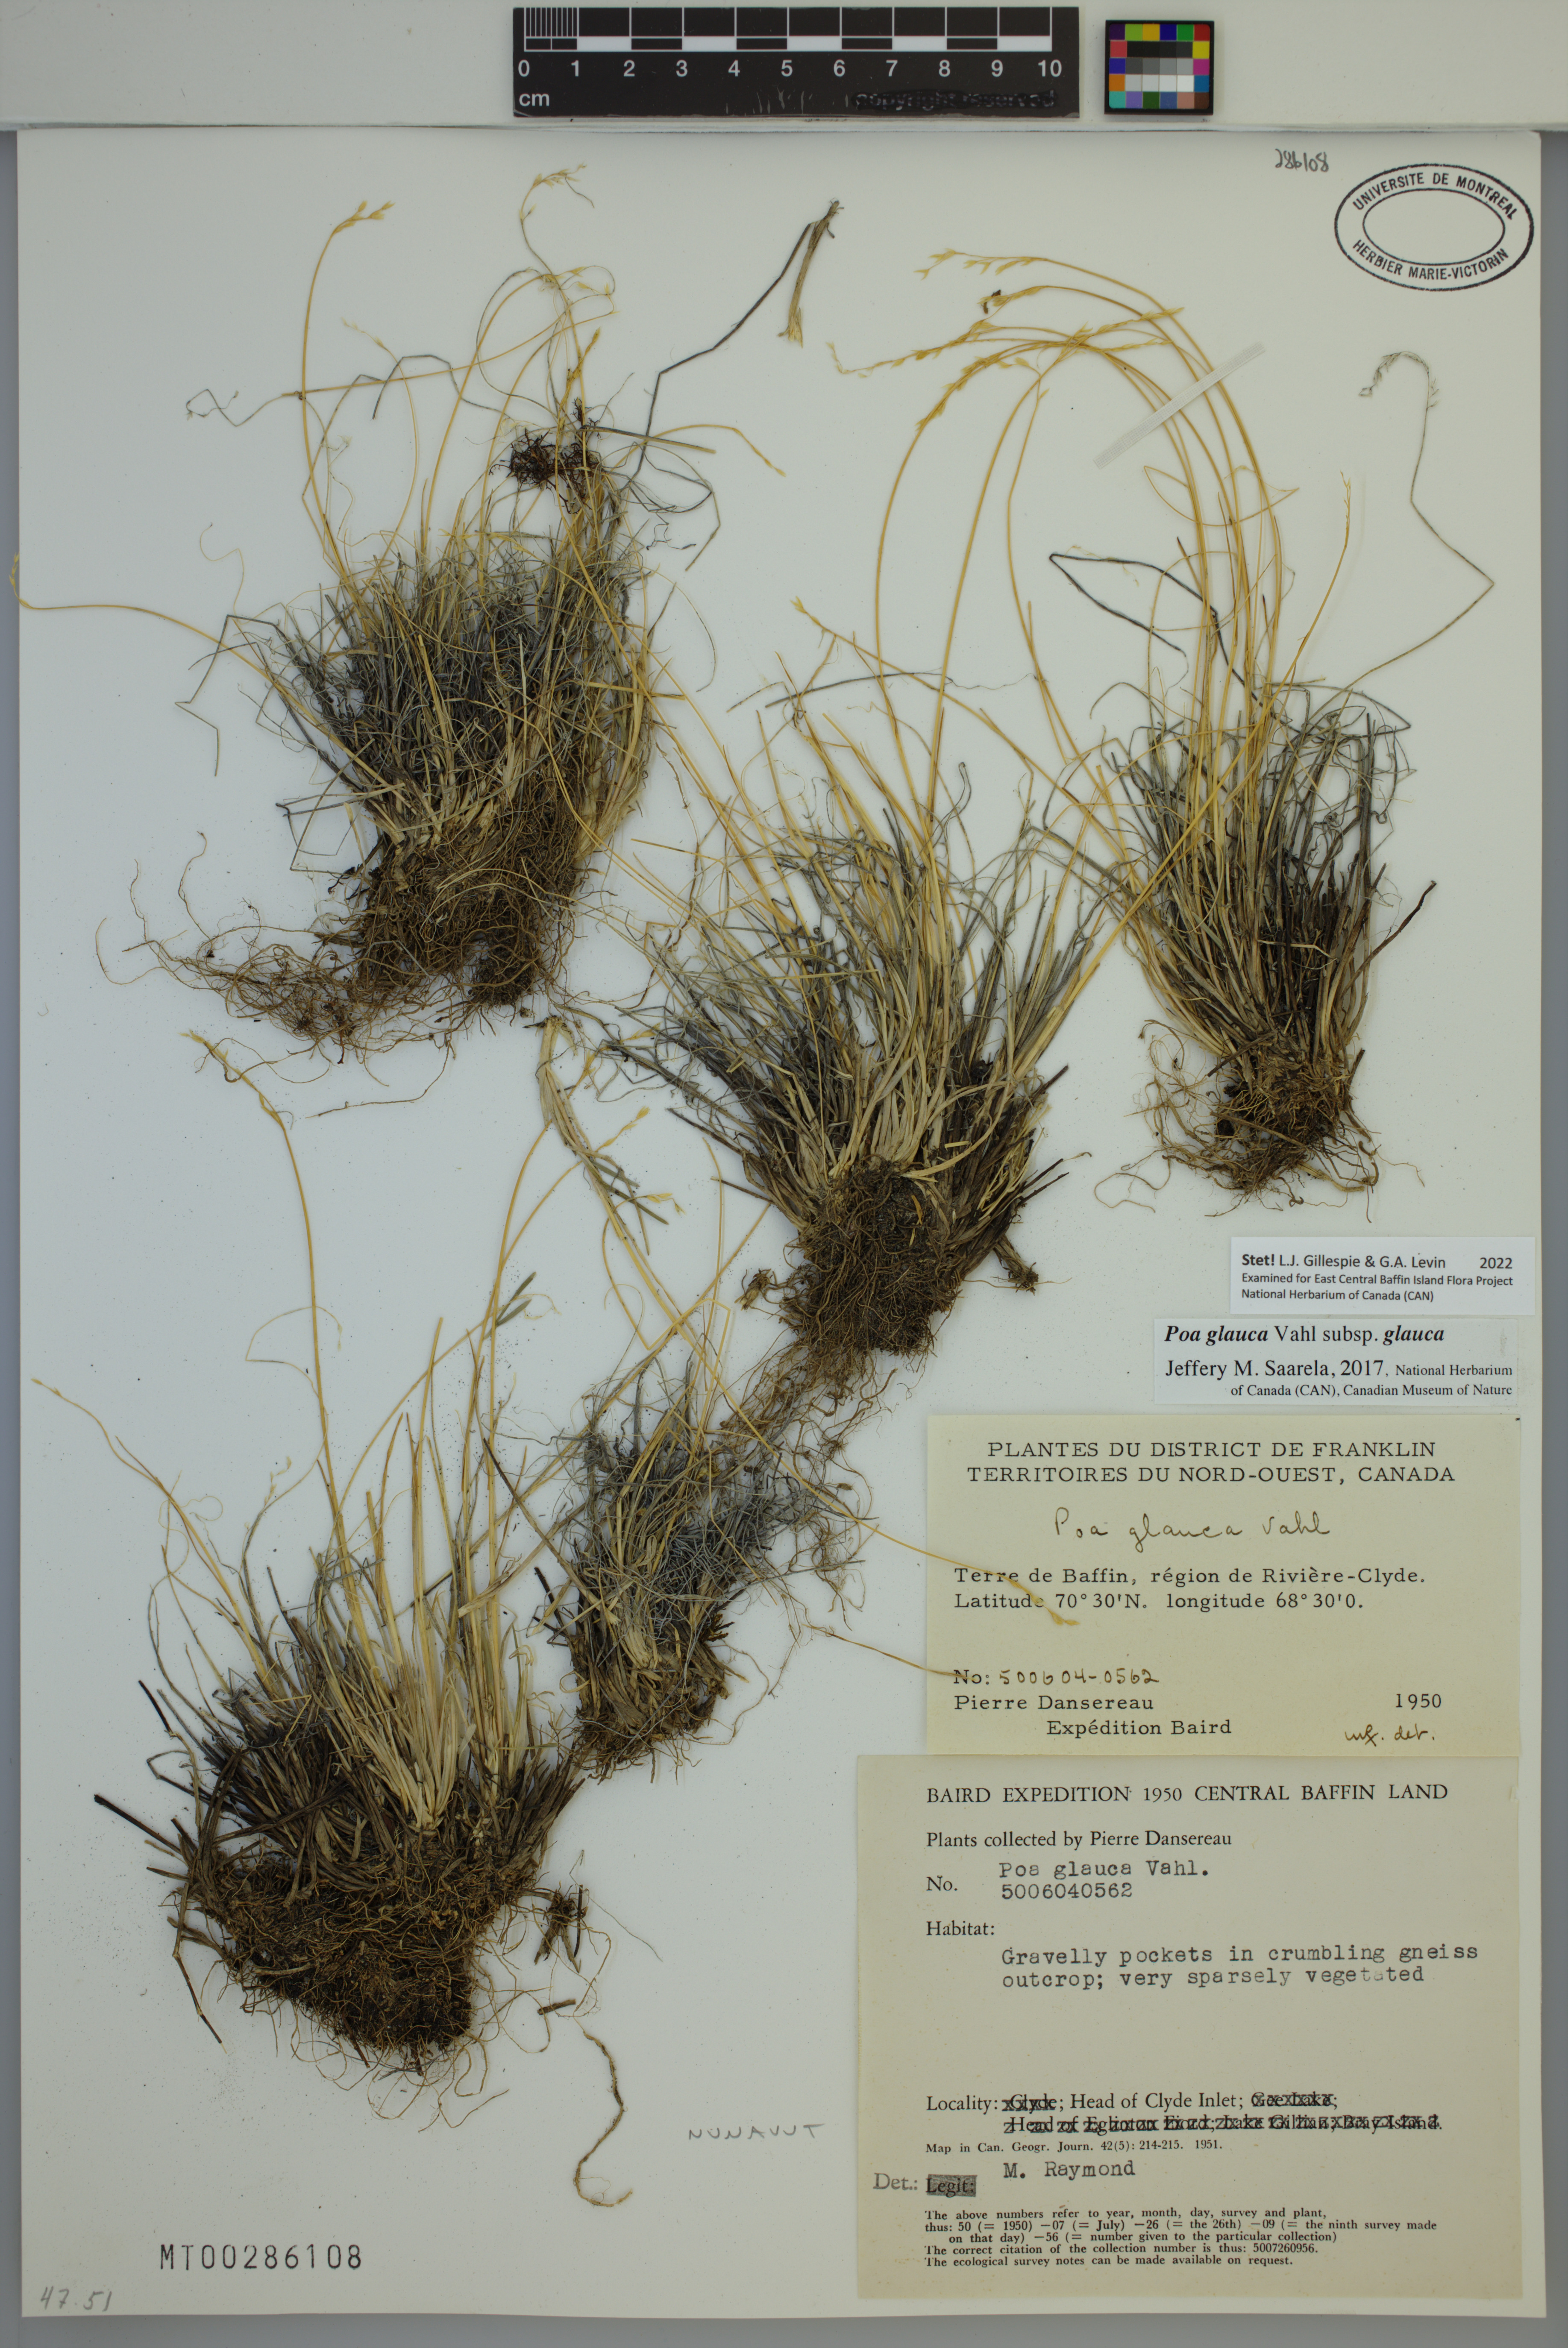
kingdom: Plantae
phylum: Tracheophyta
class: Liliopsida
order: Poales
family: Poaceae
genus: Poa
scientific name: Poa glauca
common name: Glaucous bluegrass
